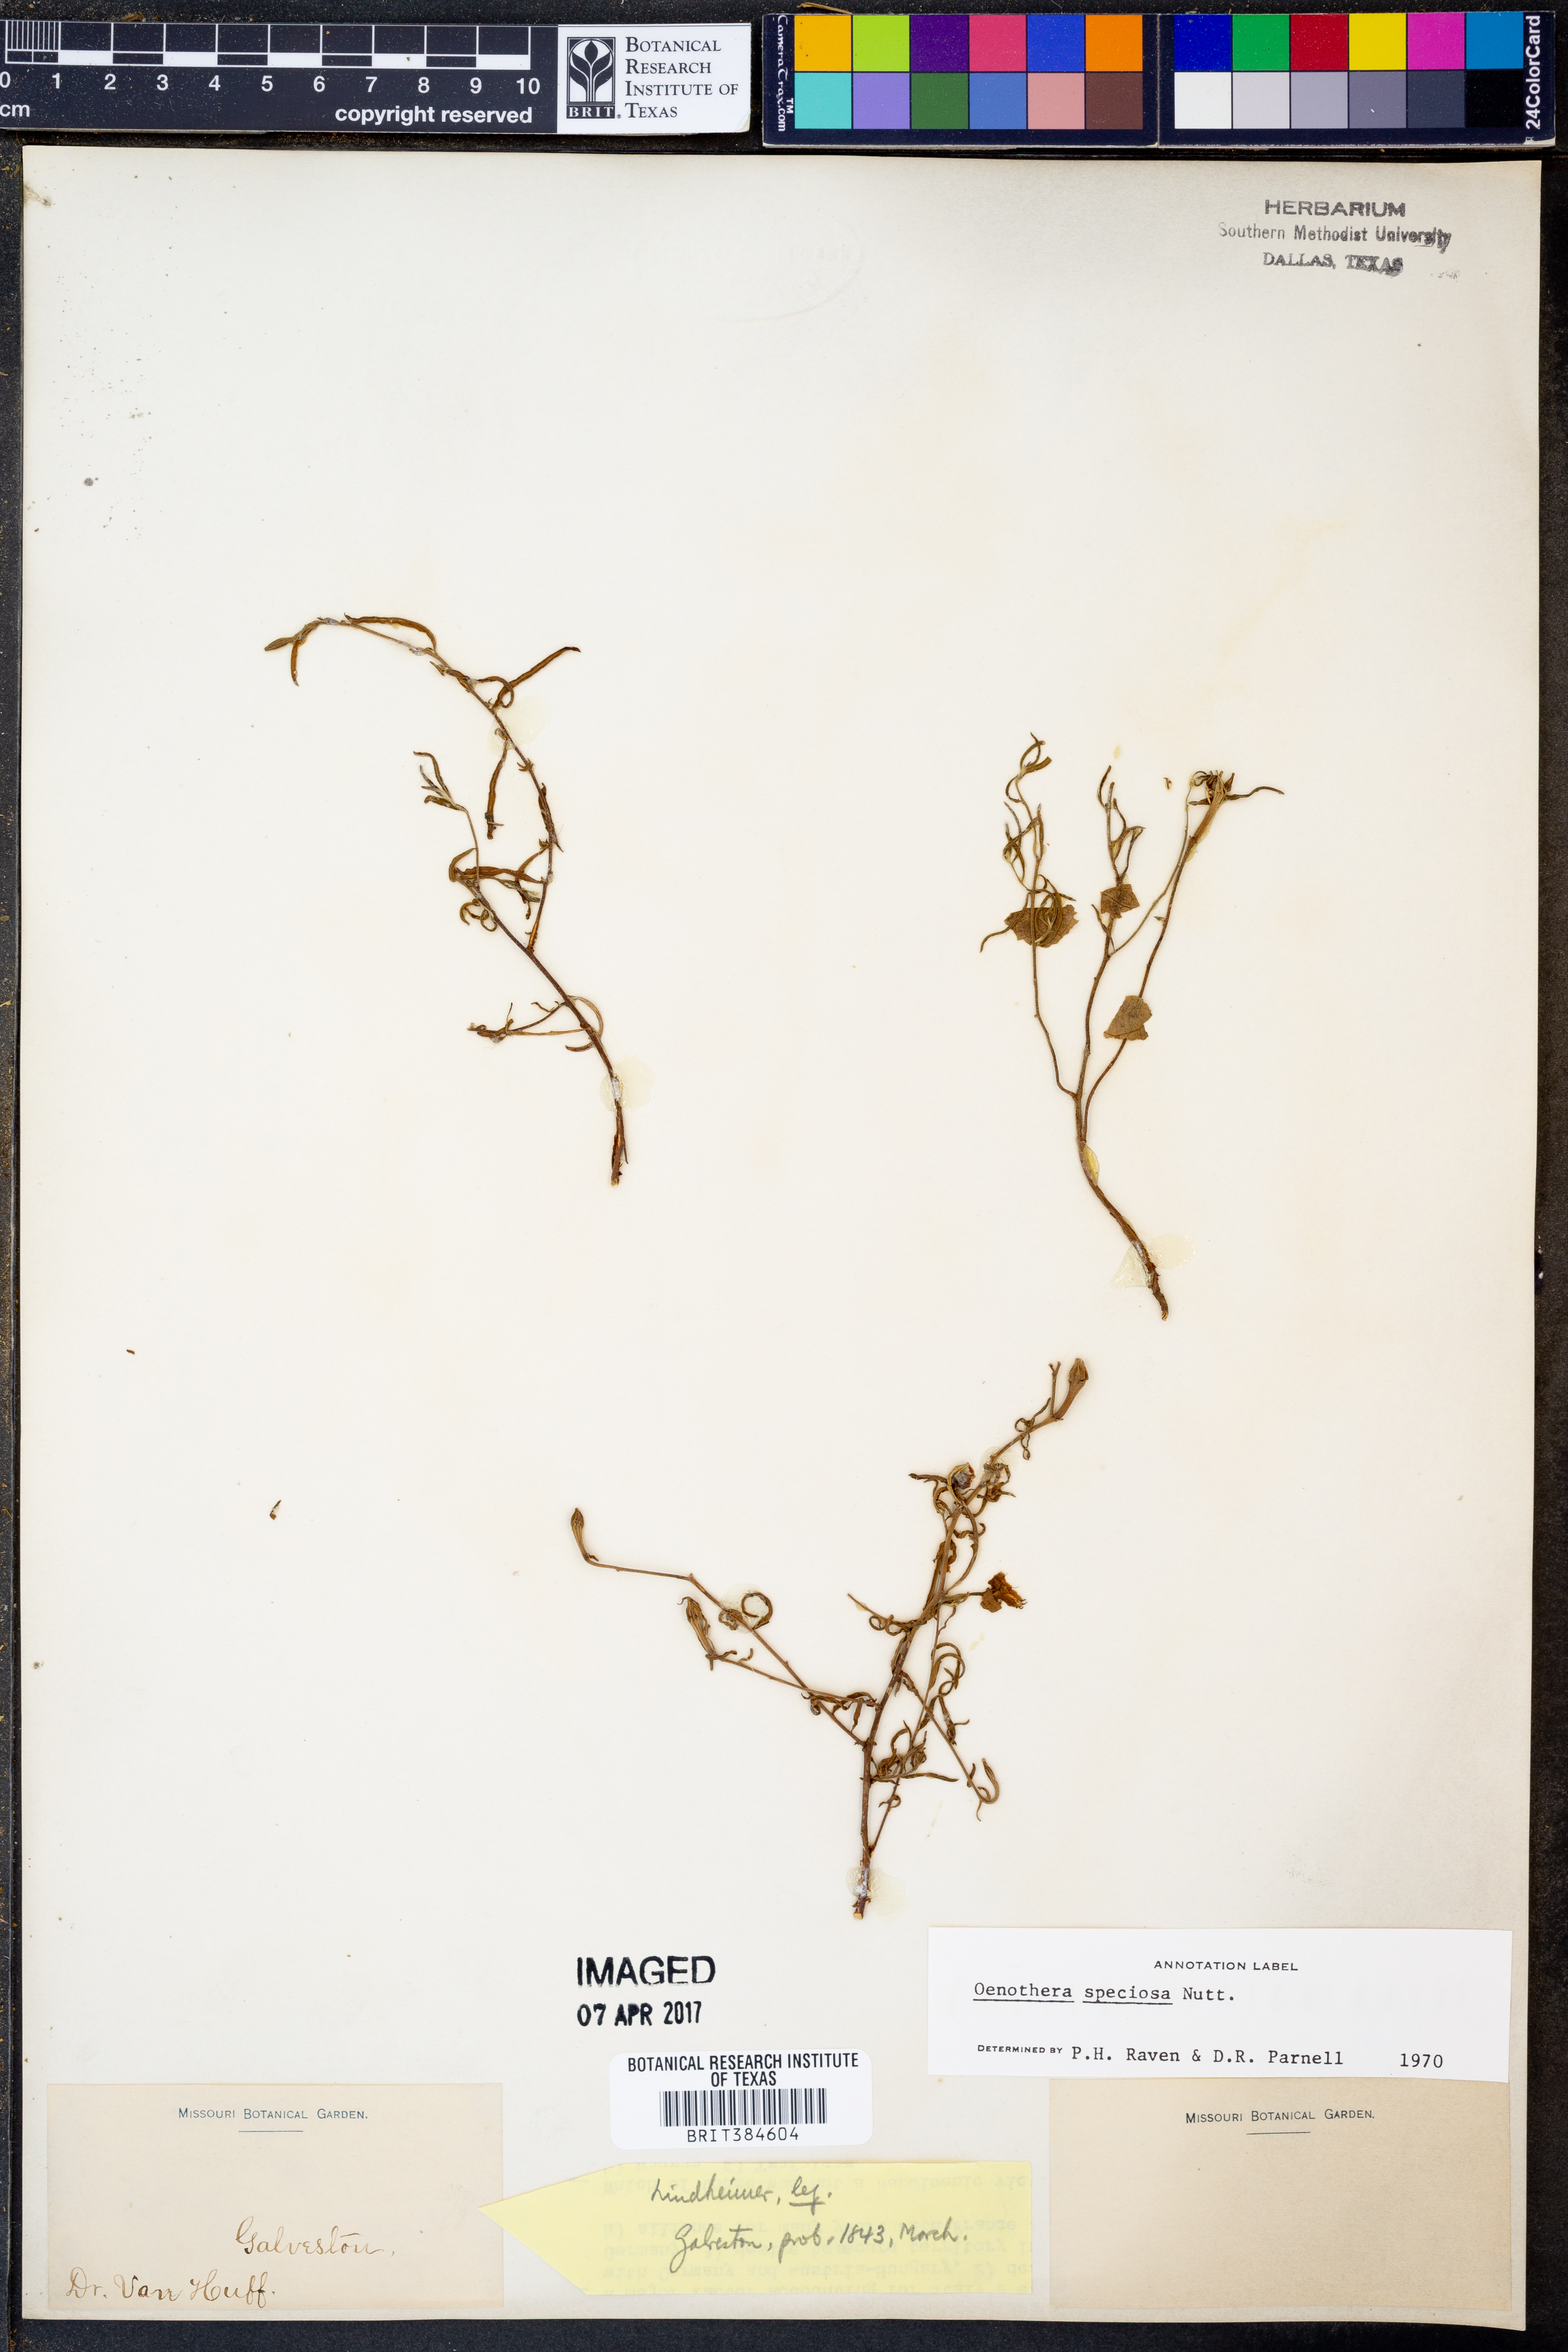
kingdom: Plantae
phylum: Tracheophyta
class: Magnoliopsida
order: Myrtales
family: Onagraceae
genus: Oenothera
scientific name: Oenothera speciosa
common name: White evening-primrose
